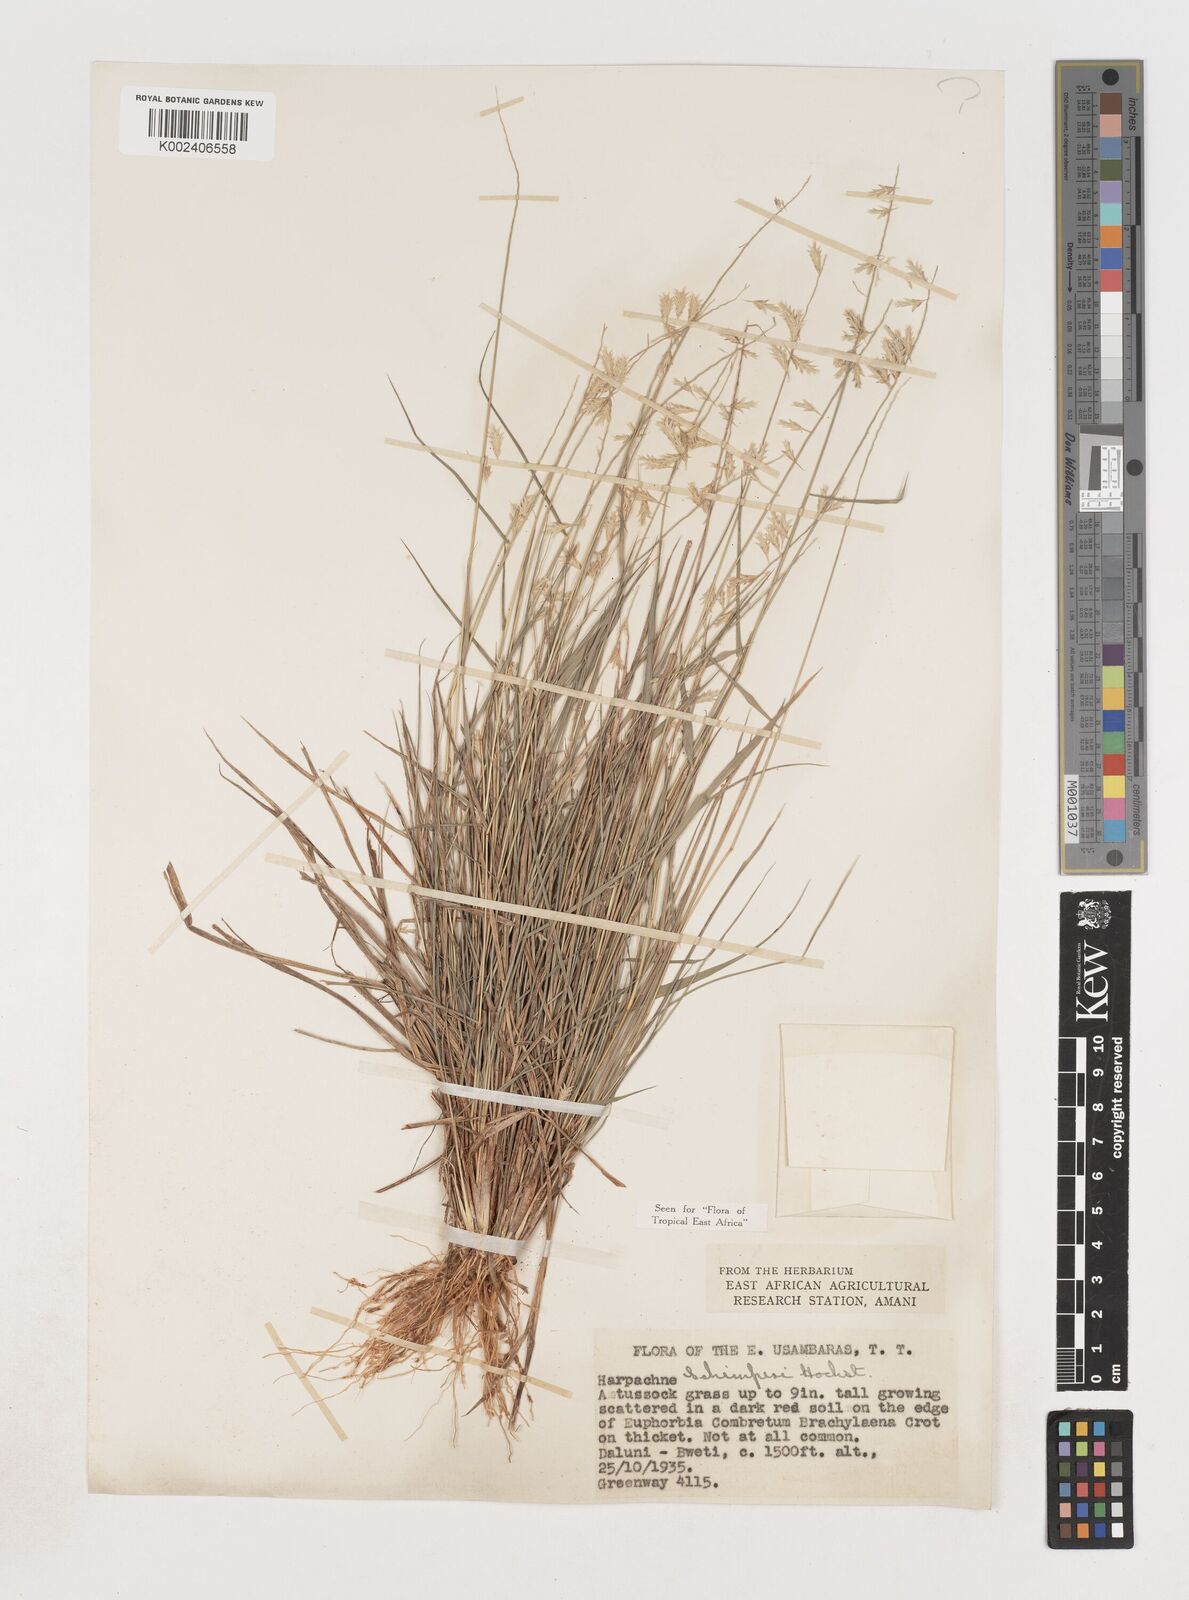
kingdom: Plantae
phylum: Tracheophyta
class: Liliopsida
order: Poales
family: Poaceae
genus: Harpachne
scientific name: Harpachne schimperi
